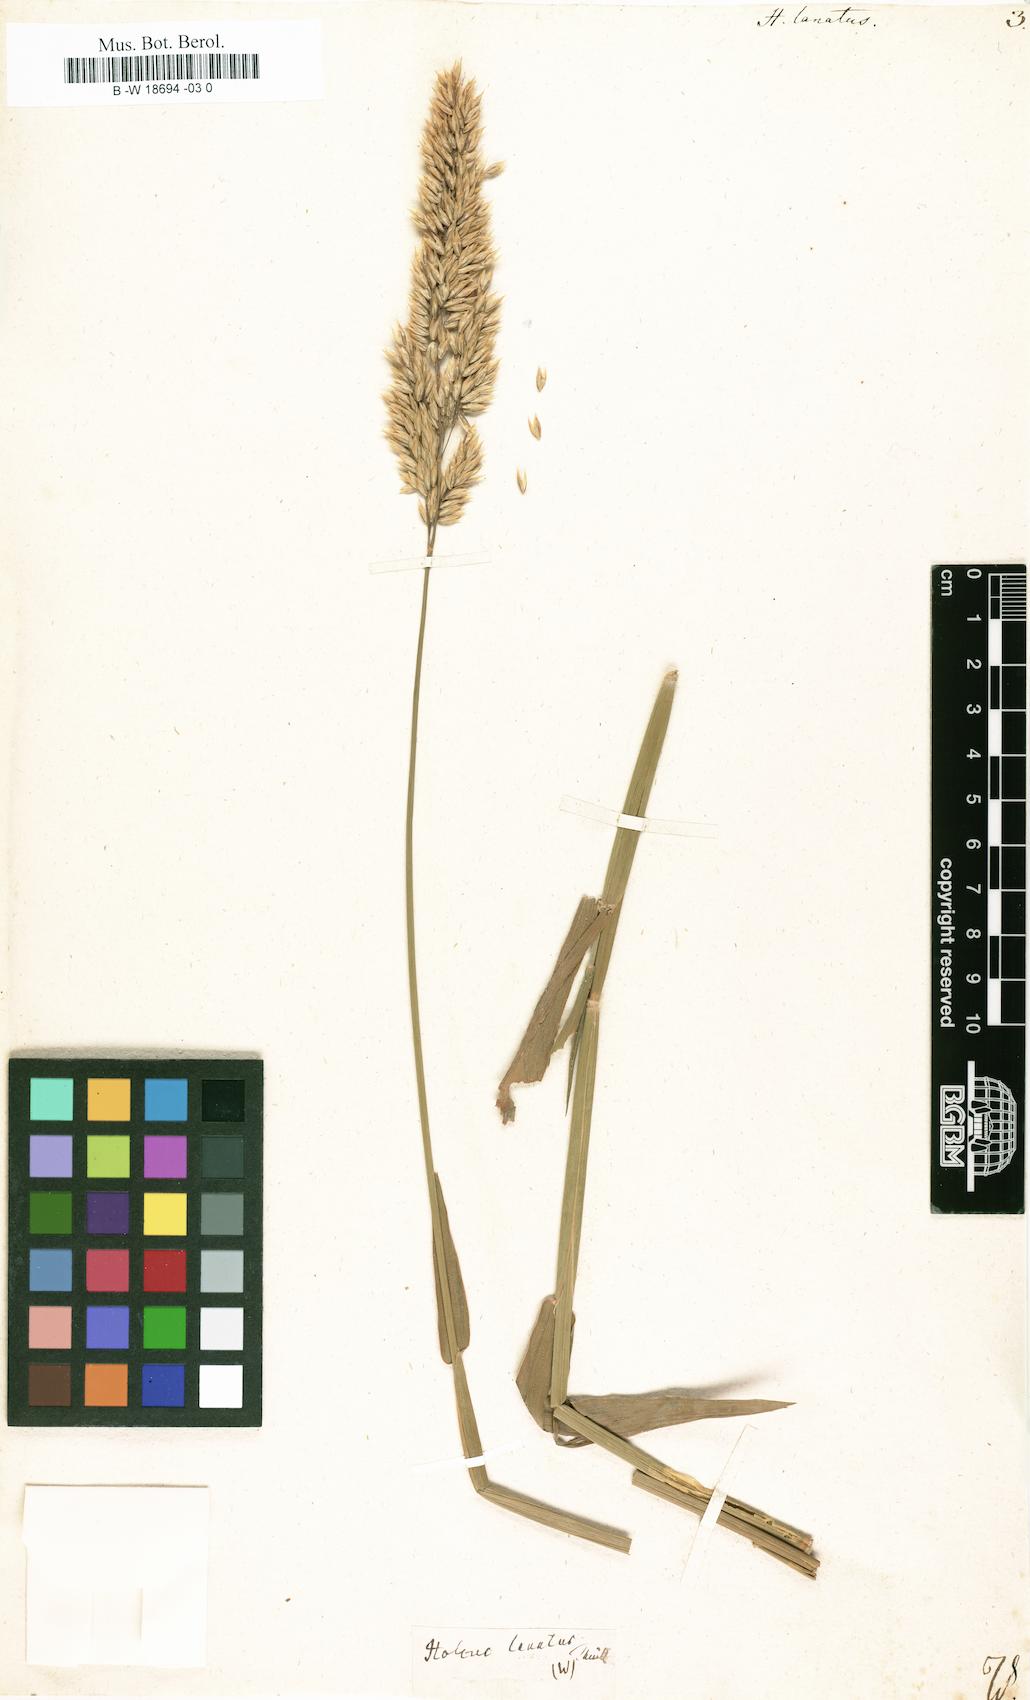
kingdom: Plantae
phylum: Tracheophyta
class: Liliopsida
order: Poales
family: Poaceae
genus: Holcus
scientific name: Holcus lanatus
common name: Yorkshire-fog
